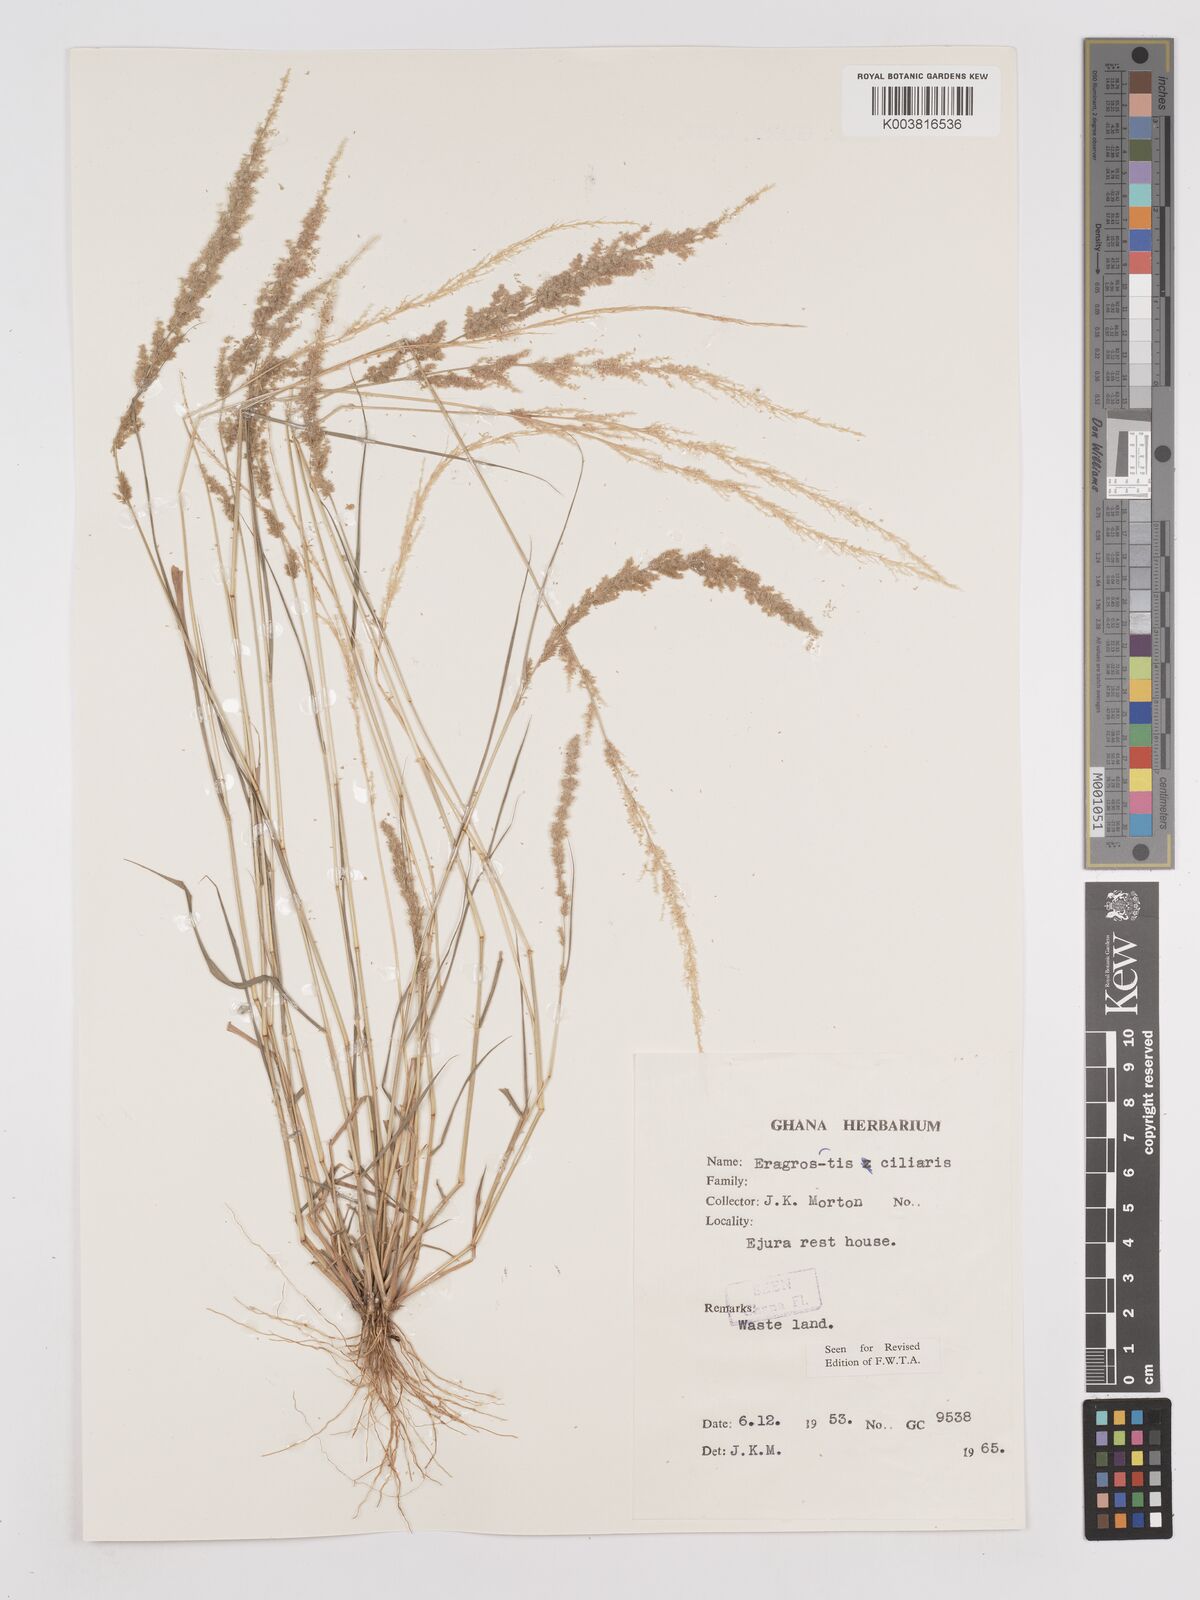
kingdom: Plantae
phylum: Tracheophyta
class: Liliopsida
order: Poales
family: Poaceae
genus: Eragrostis
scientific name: Eragrostis ciliaris
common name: Gophertail lovegrass
